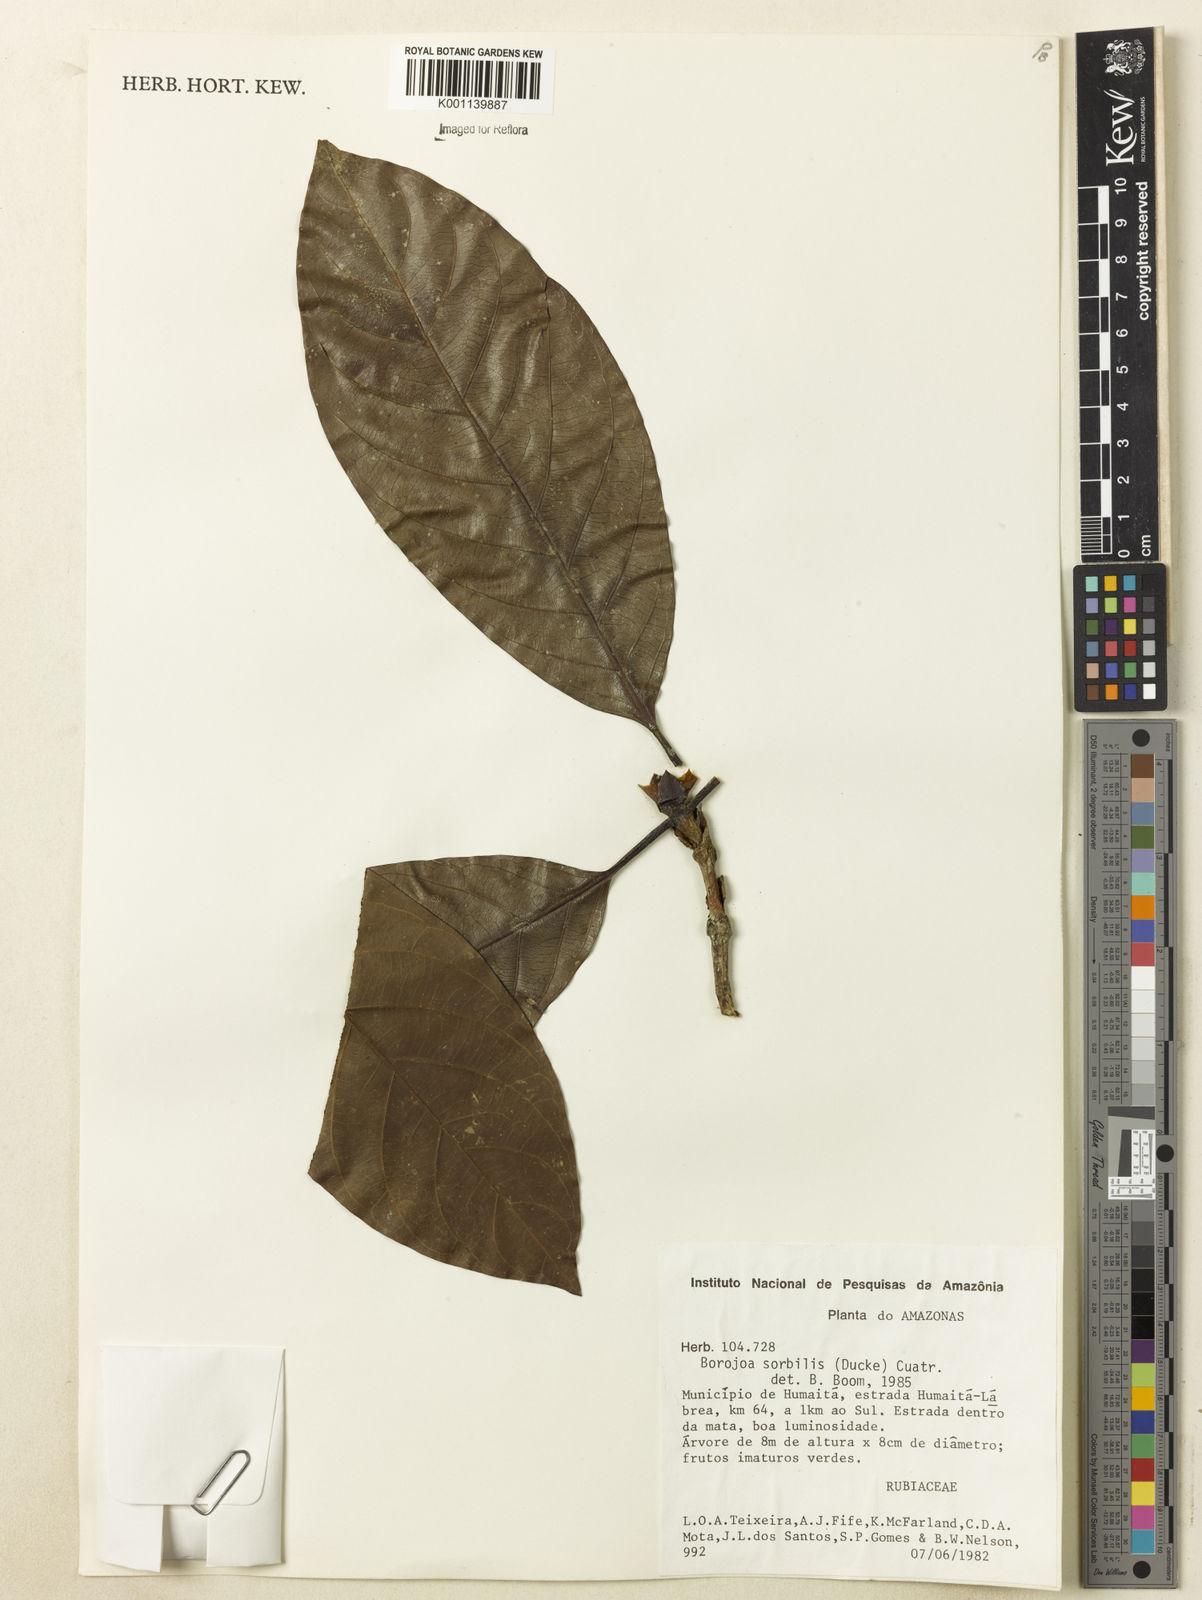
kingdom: Plantae
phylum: Tracheophyta
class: Magnoliopsida
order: Gentianales
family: Rubiaceae
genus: Alibertia
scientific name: Alibertia sorbilis
